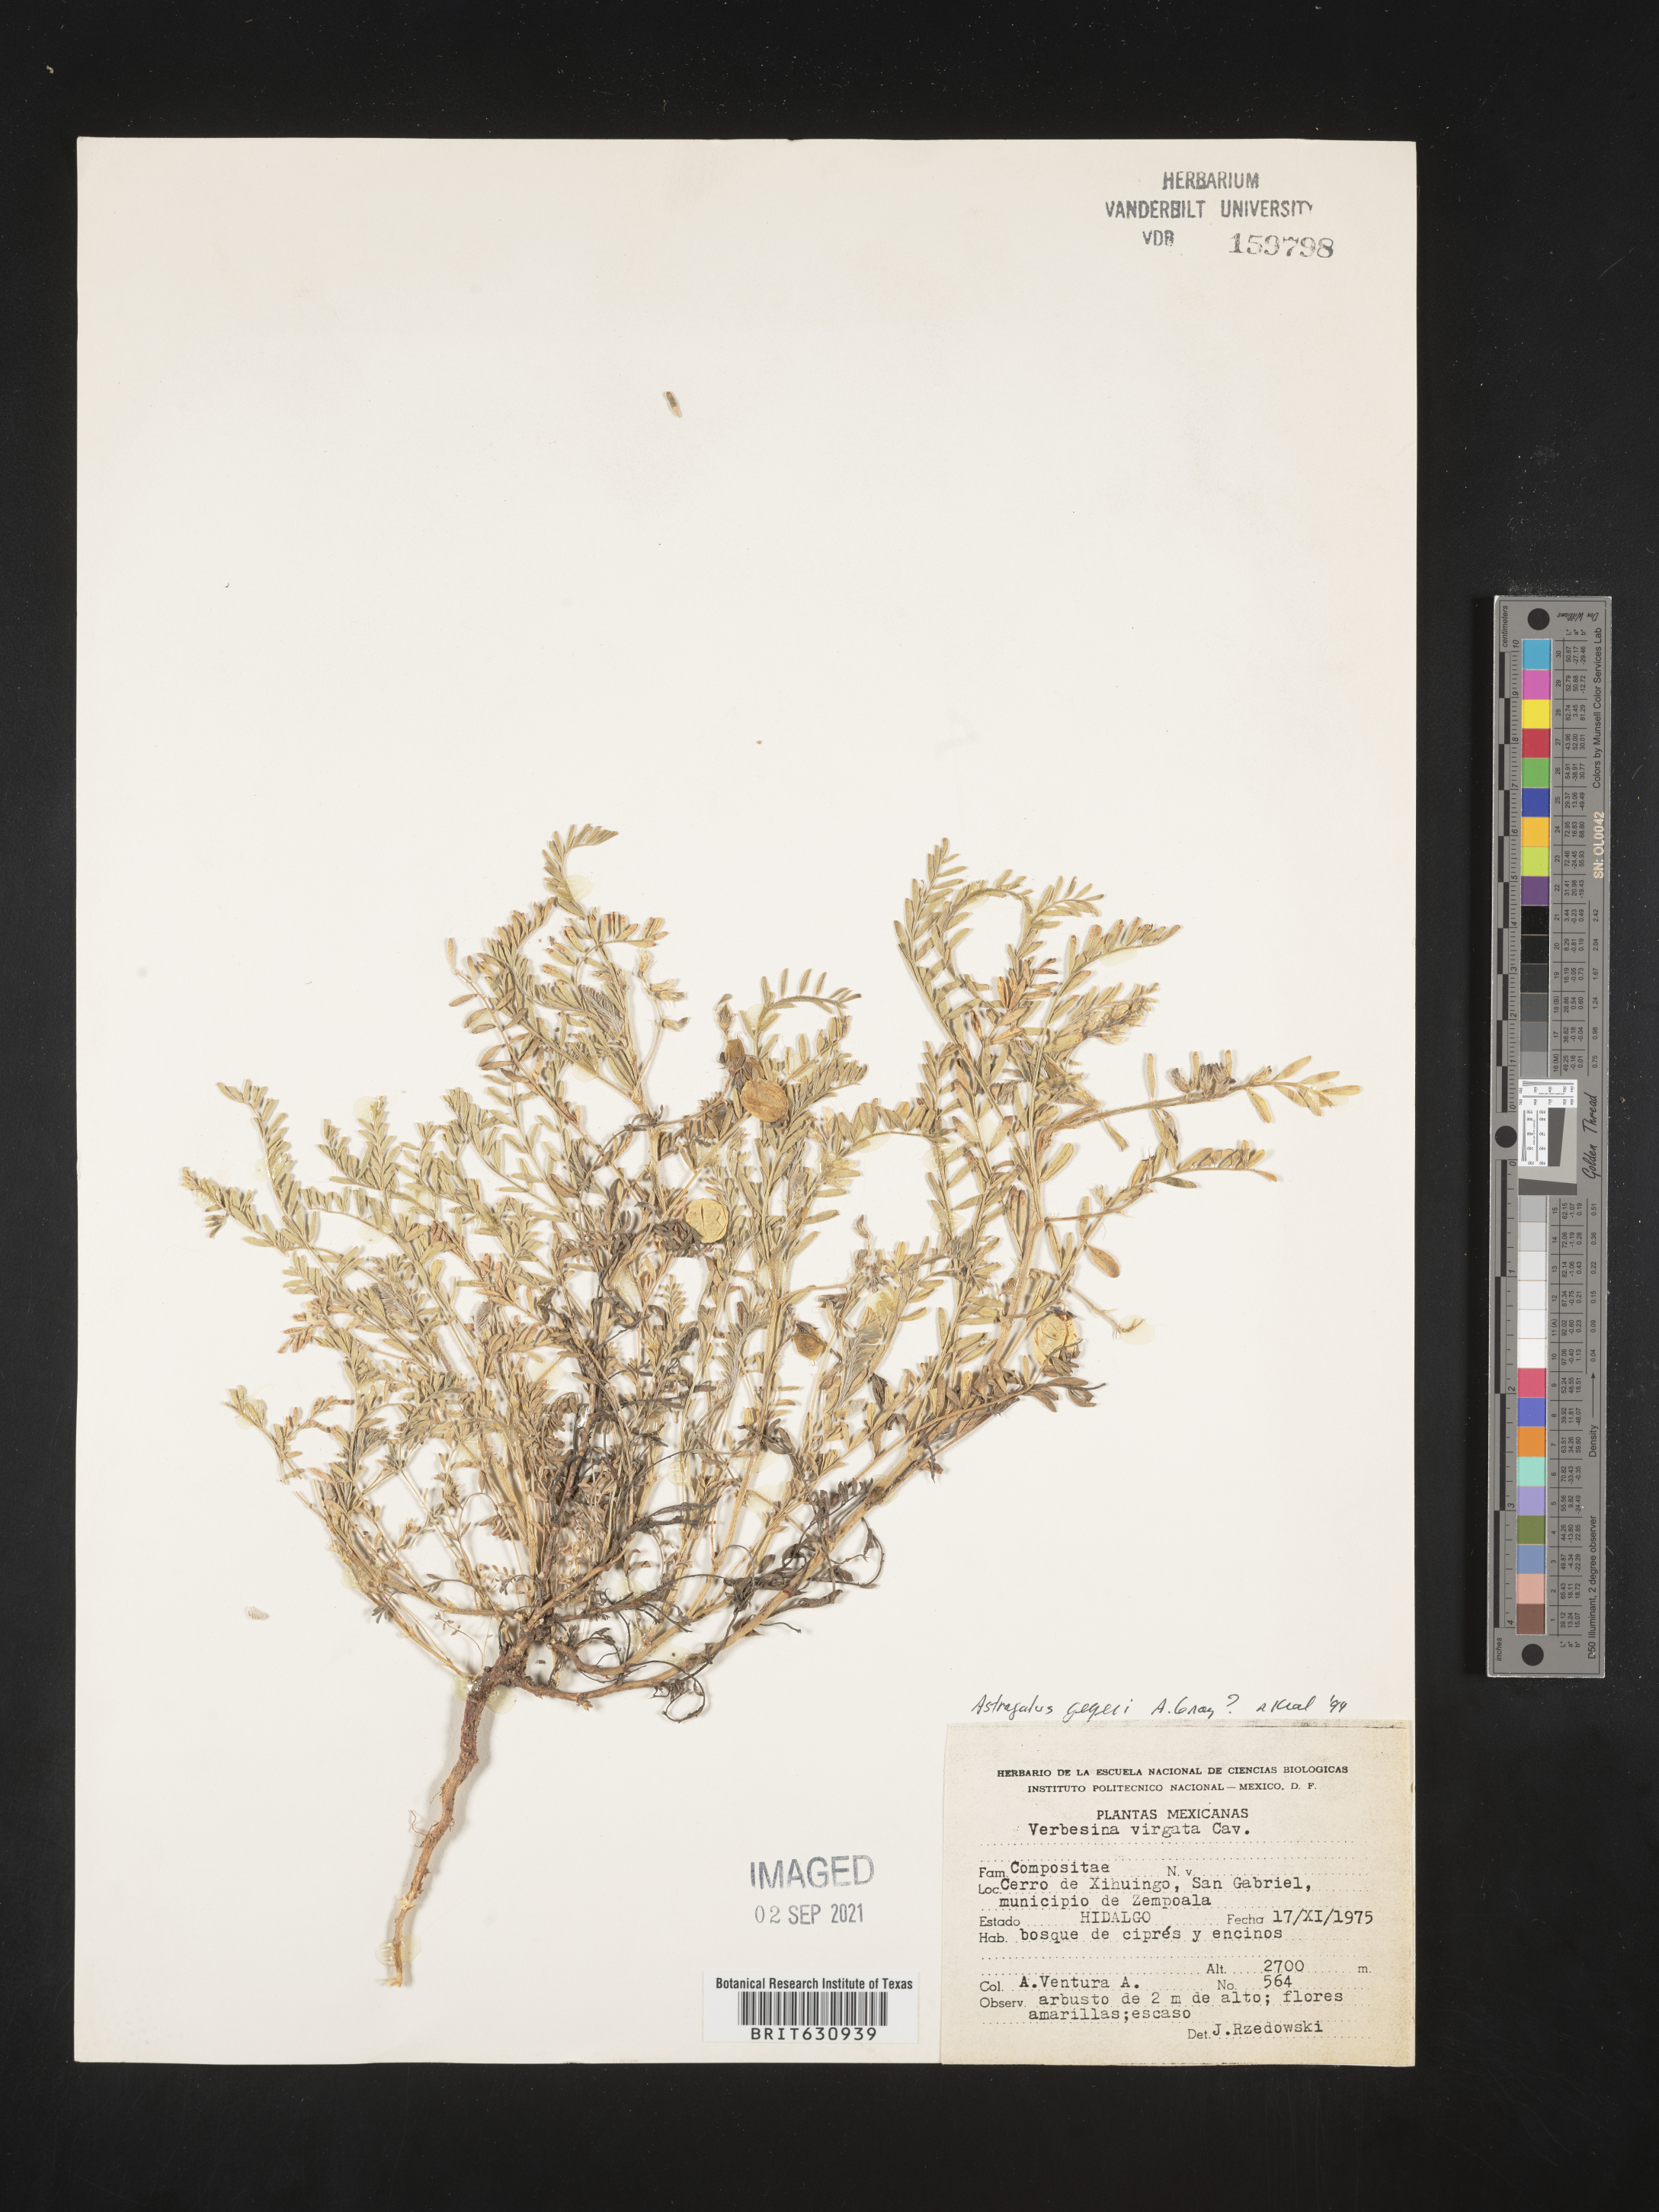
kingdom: Plantae
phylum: Tracheophyta
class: Magnoliopsida
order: Fabales
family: Fabaceae
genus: Astragalus
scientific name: Astragalus
